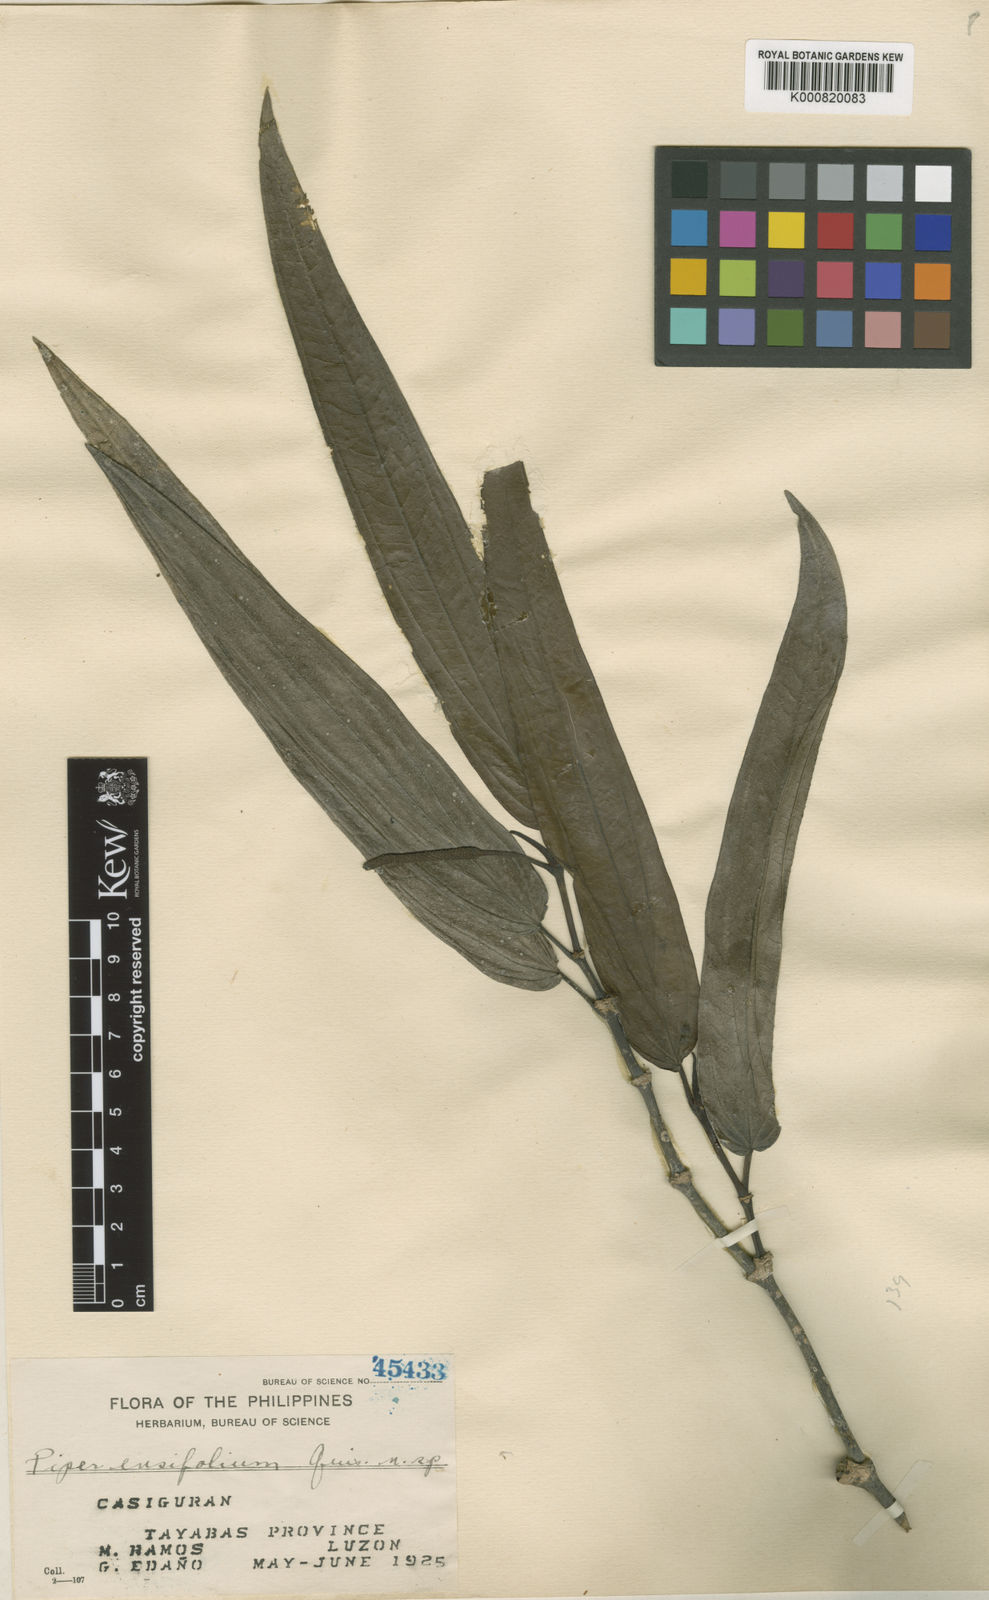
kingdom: Plantae
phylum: Tracheophyta
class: Magnoliopsida
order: Piperales
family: Piperaceae
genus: Piper
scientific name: Piper ensifolium
